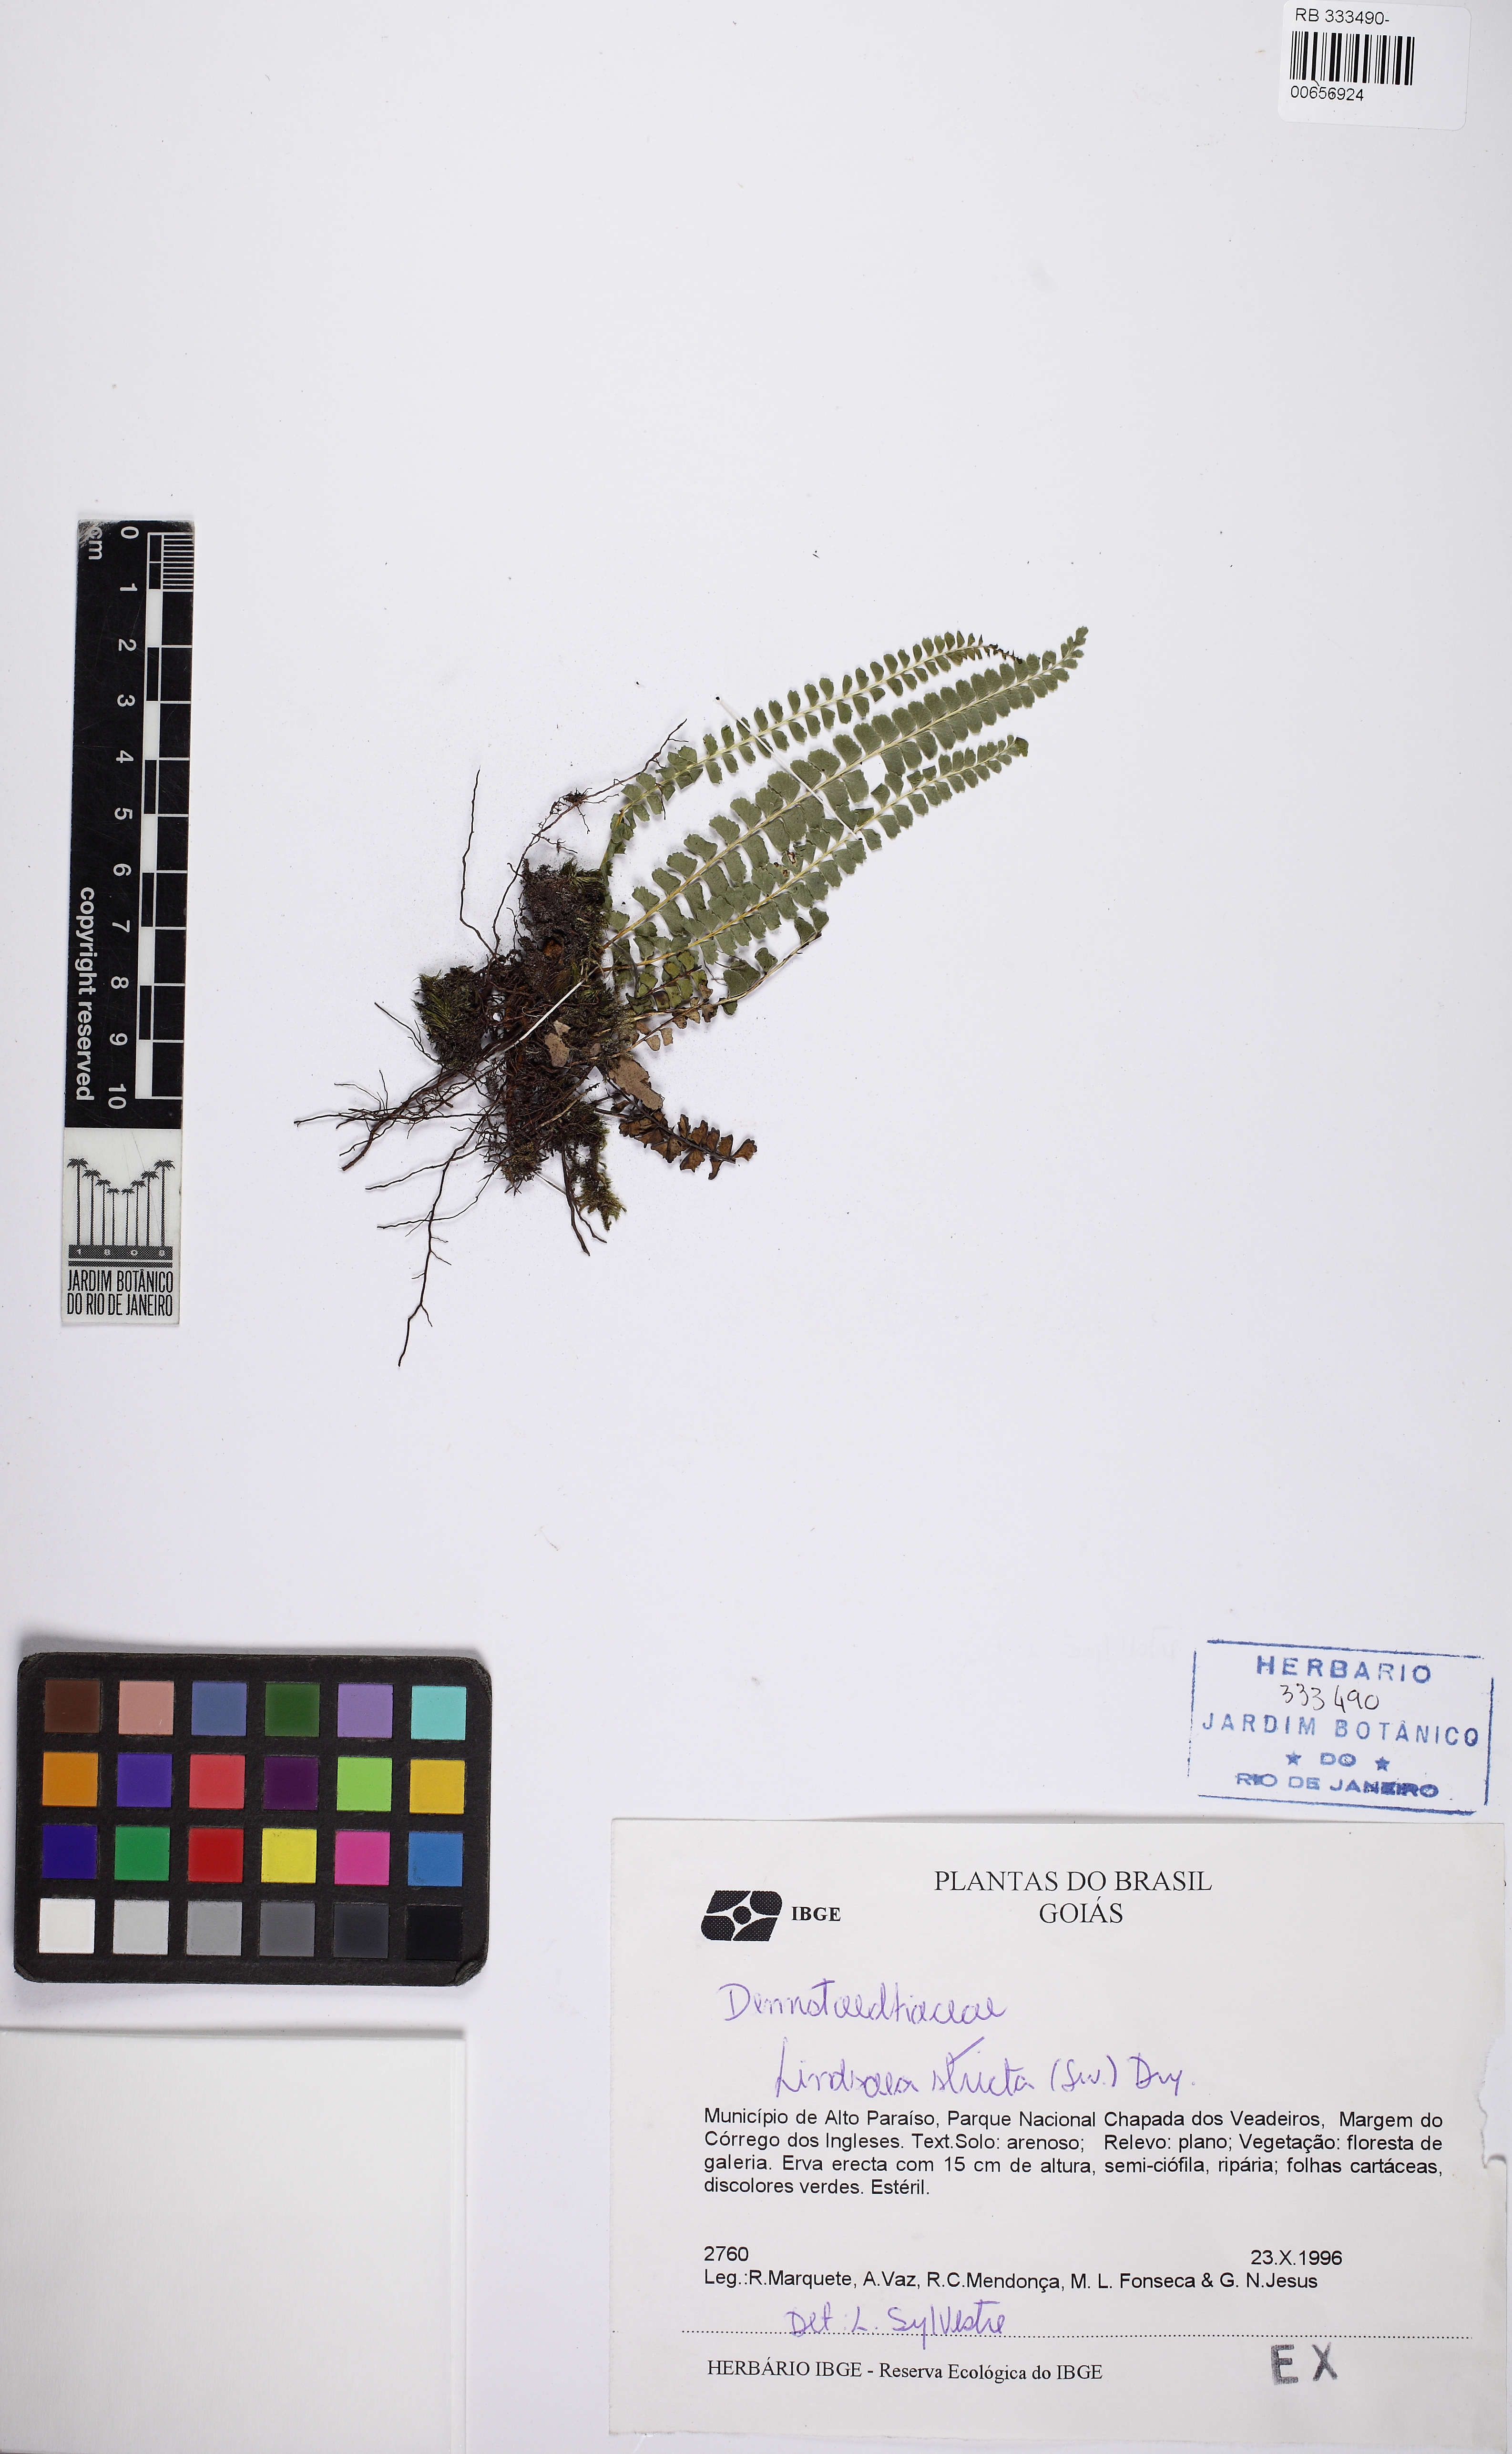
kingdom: Plantae
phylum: Tracheophyta
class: Polypodiopsida
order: Polypodiales
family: Lindsaeaceae
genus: Lindsaea
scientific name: Lindsaea stricta
